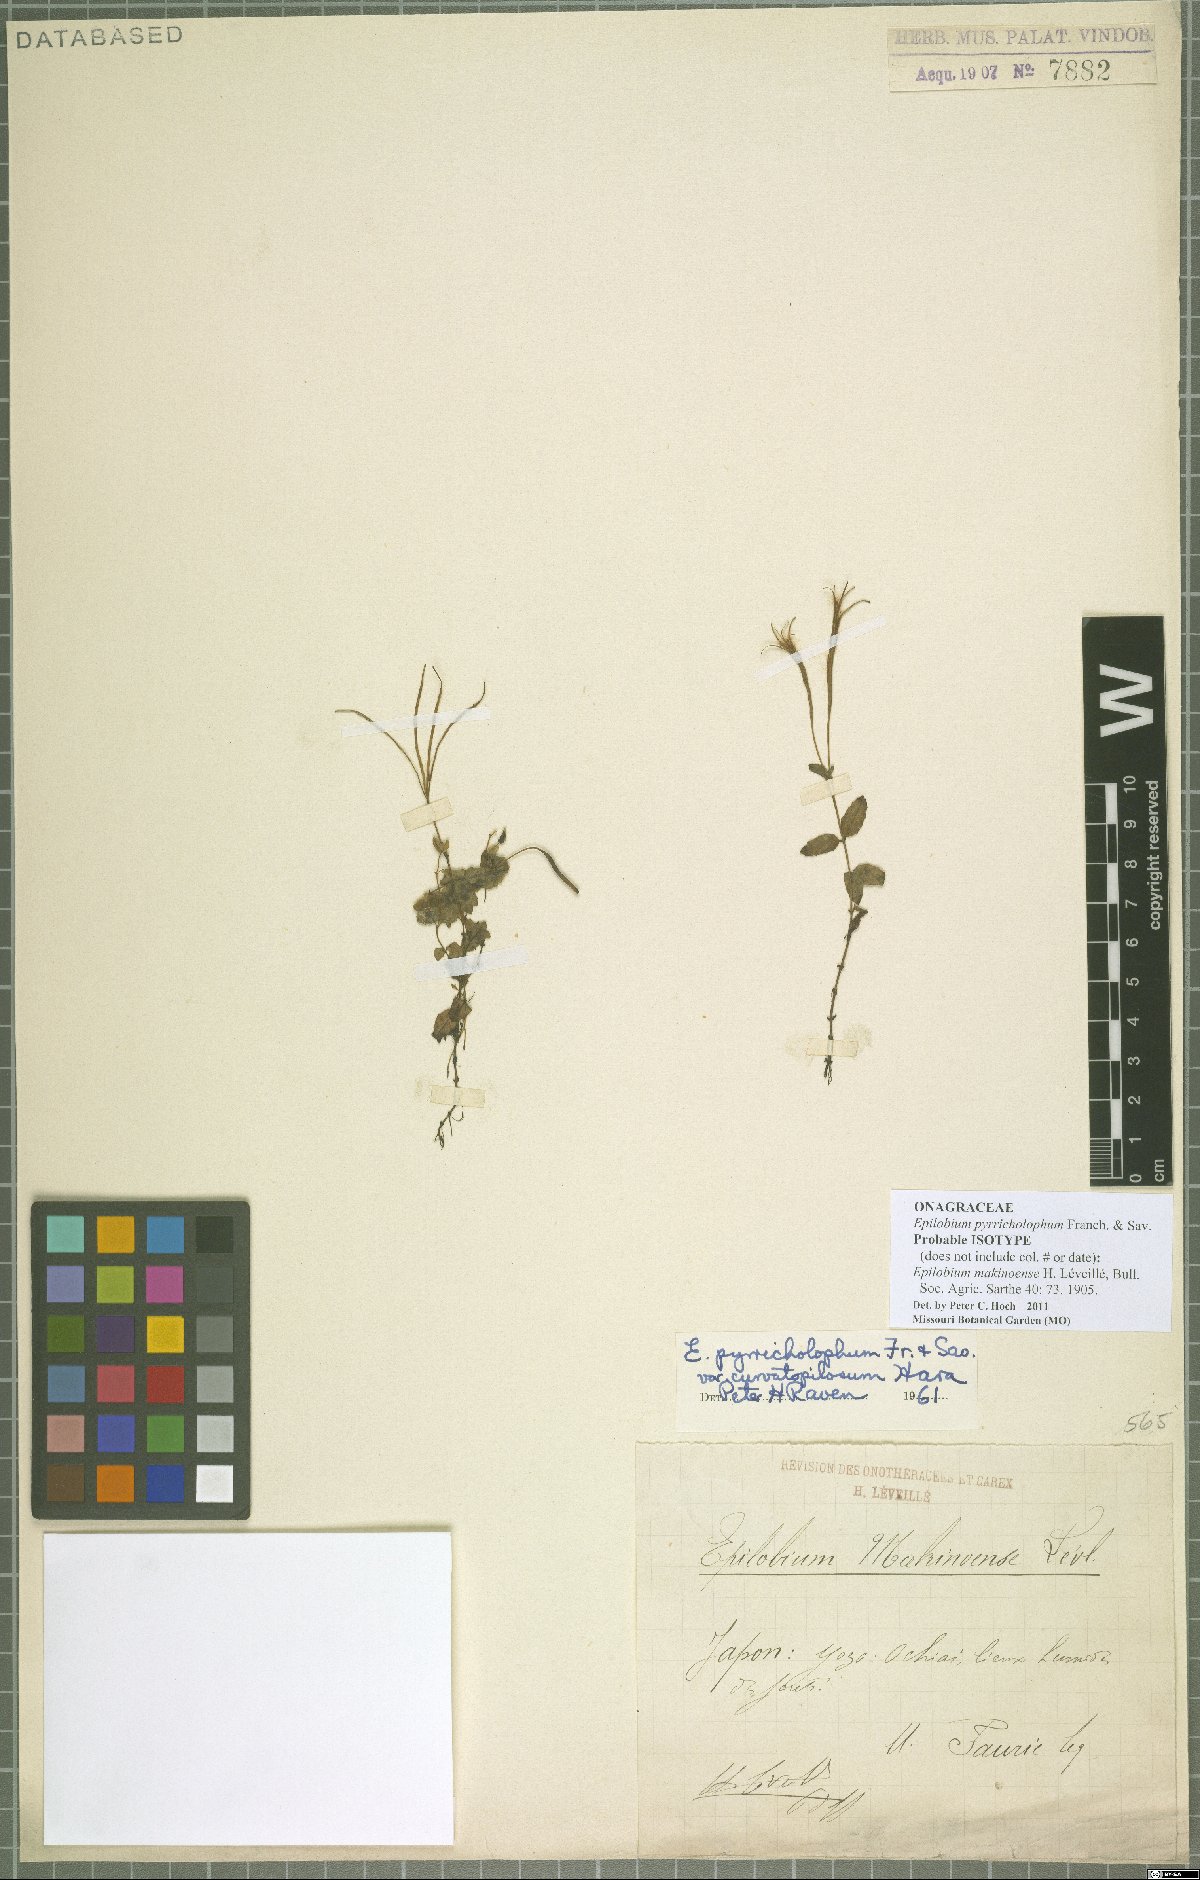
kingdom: Plantae
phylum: Tracheophyta
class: Magnoliopsida
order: Myrtales
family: Onagraceae
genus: Epilobium
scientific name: Epilobium pyrricholophum
